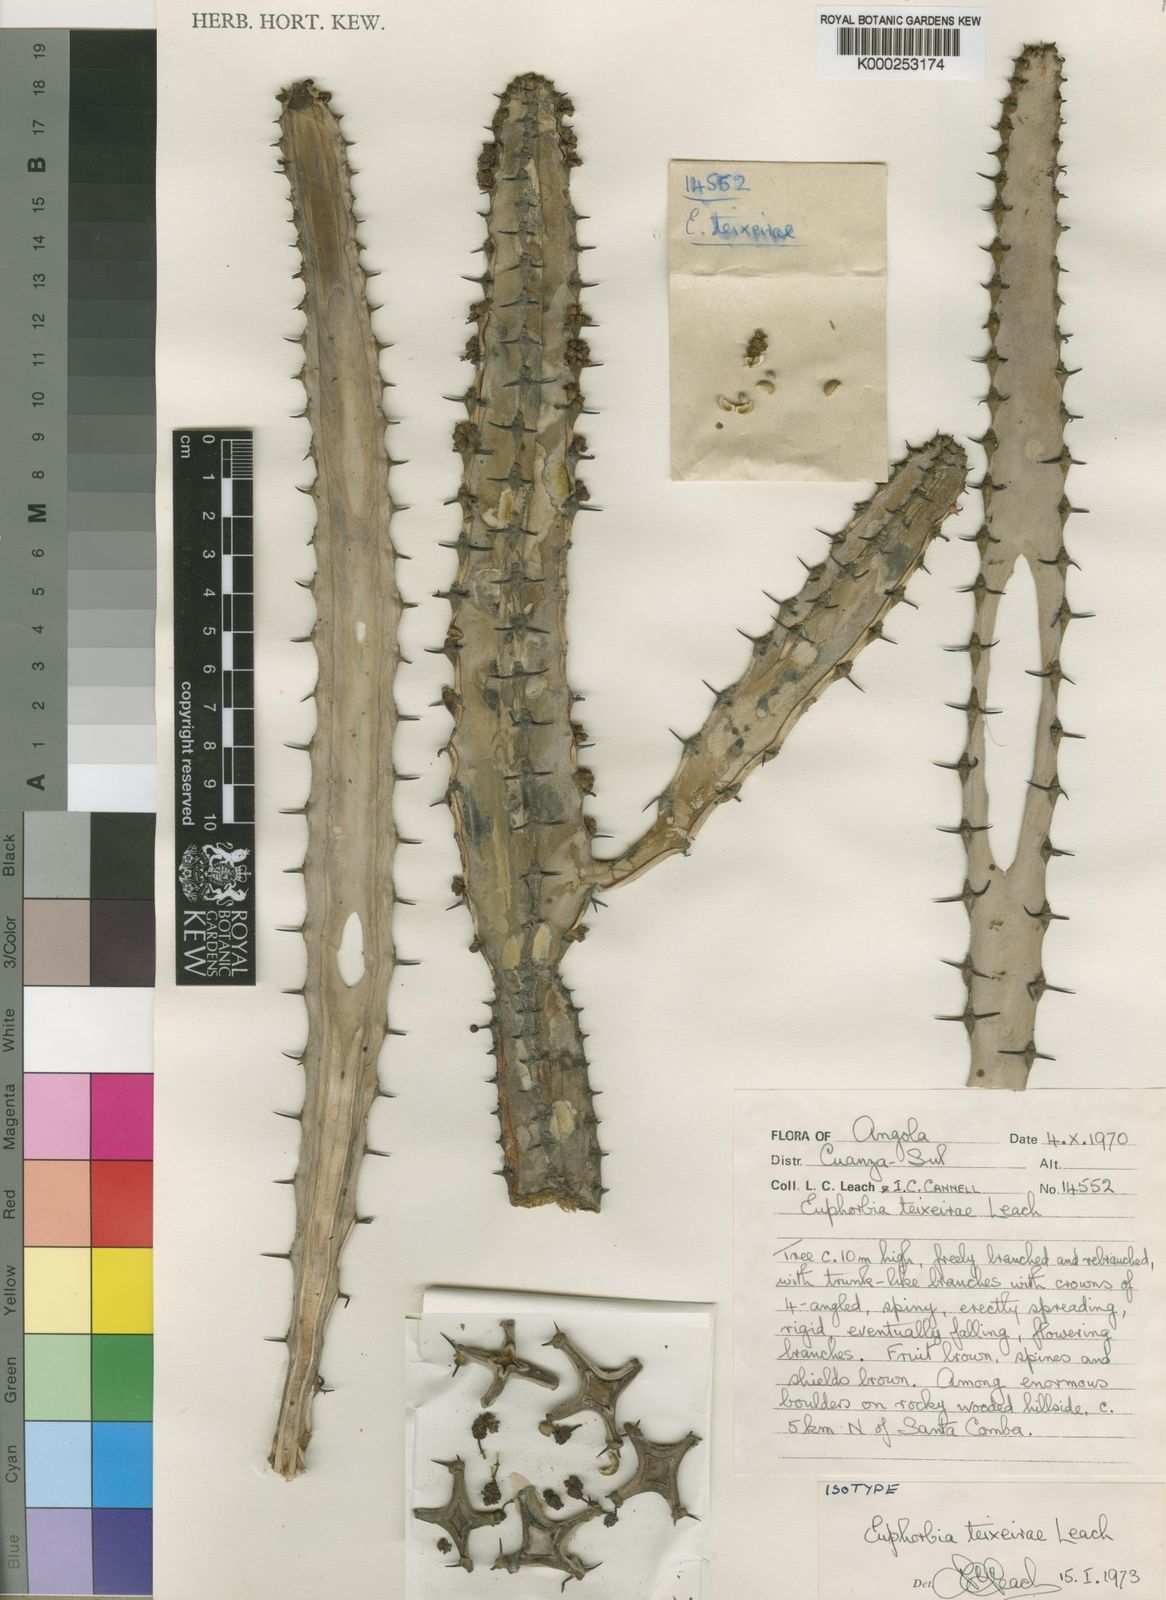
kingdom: Plantae
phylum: Tracheophyta
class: Magnoliopsida
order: Malpighiales
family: Euphorbiaceae
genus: Euphorbia
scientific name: Euphorbia teixeirae
